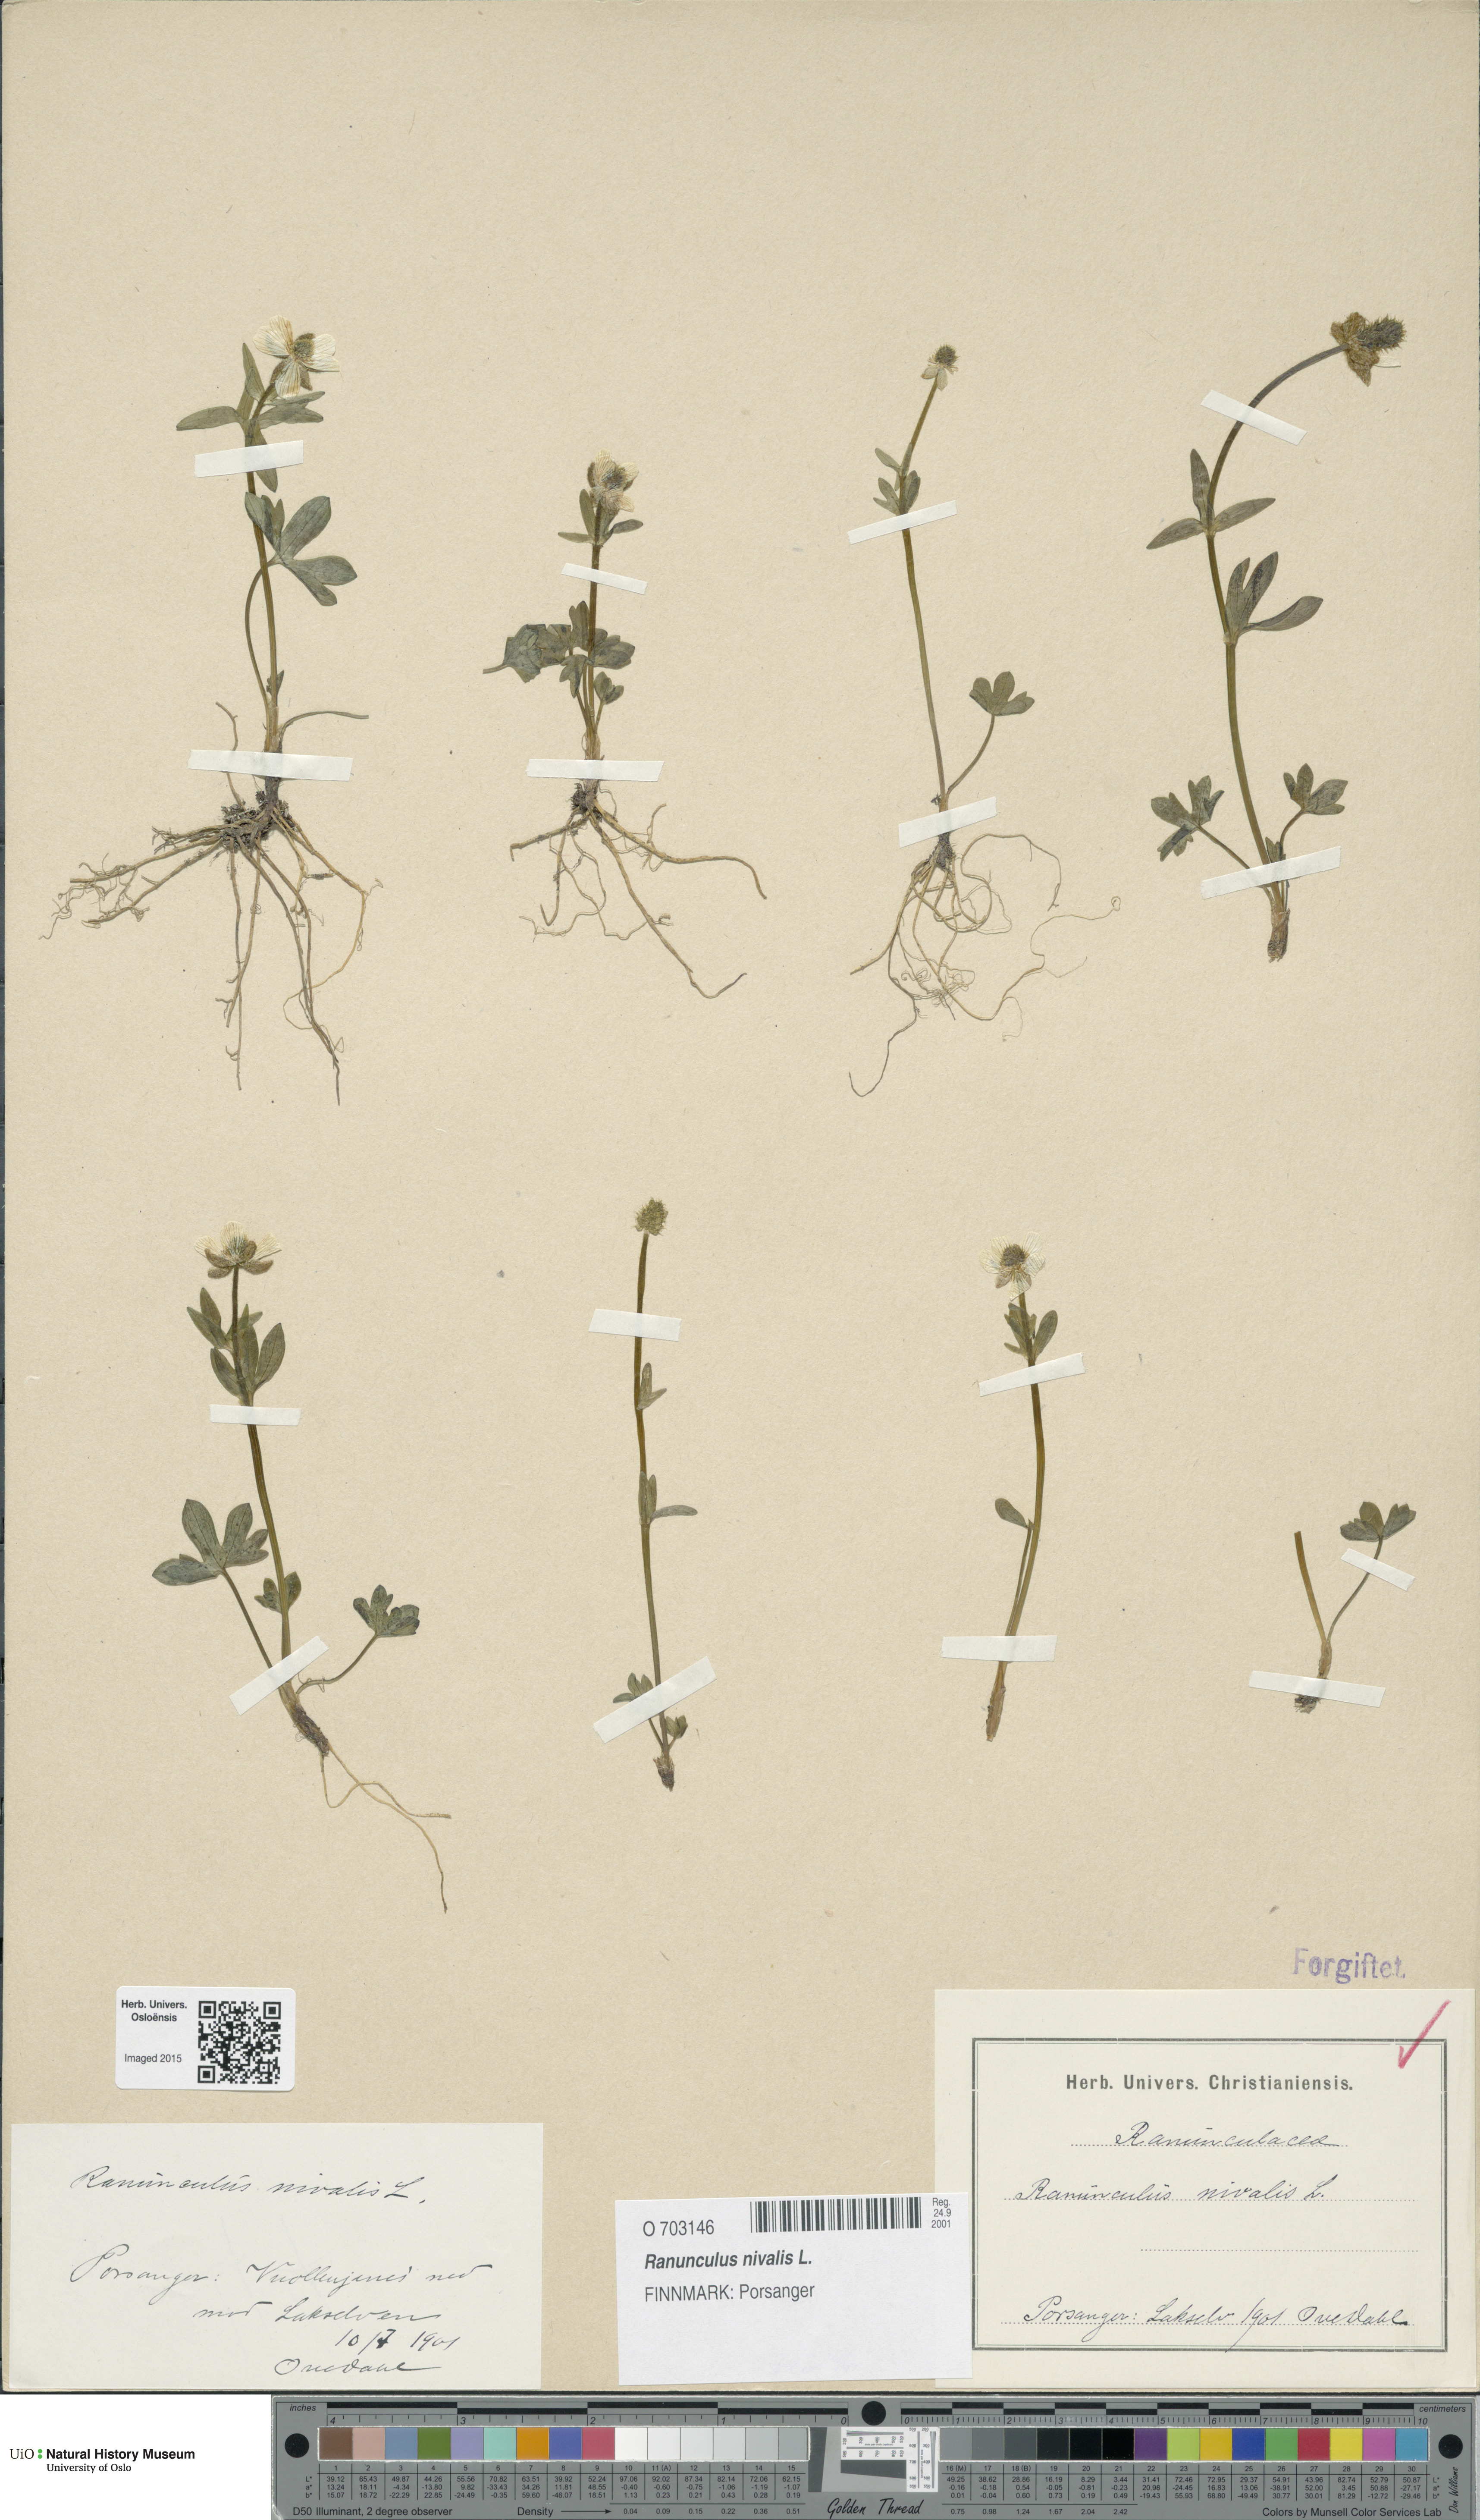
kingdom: Plantae
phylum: Tracheophyta
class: Magnoliopsida
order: Ranunculales
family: Ranunculaceae
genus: Ranunculus
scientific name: Ranunculus nivalis
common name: Snow buttercup
